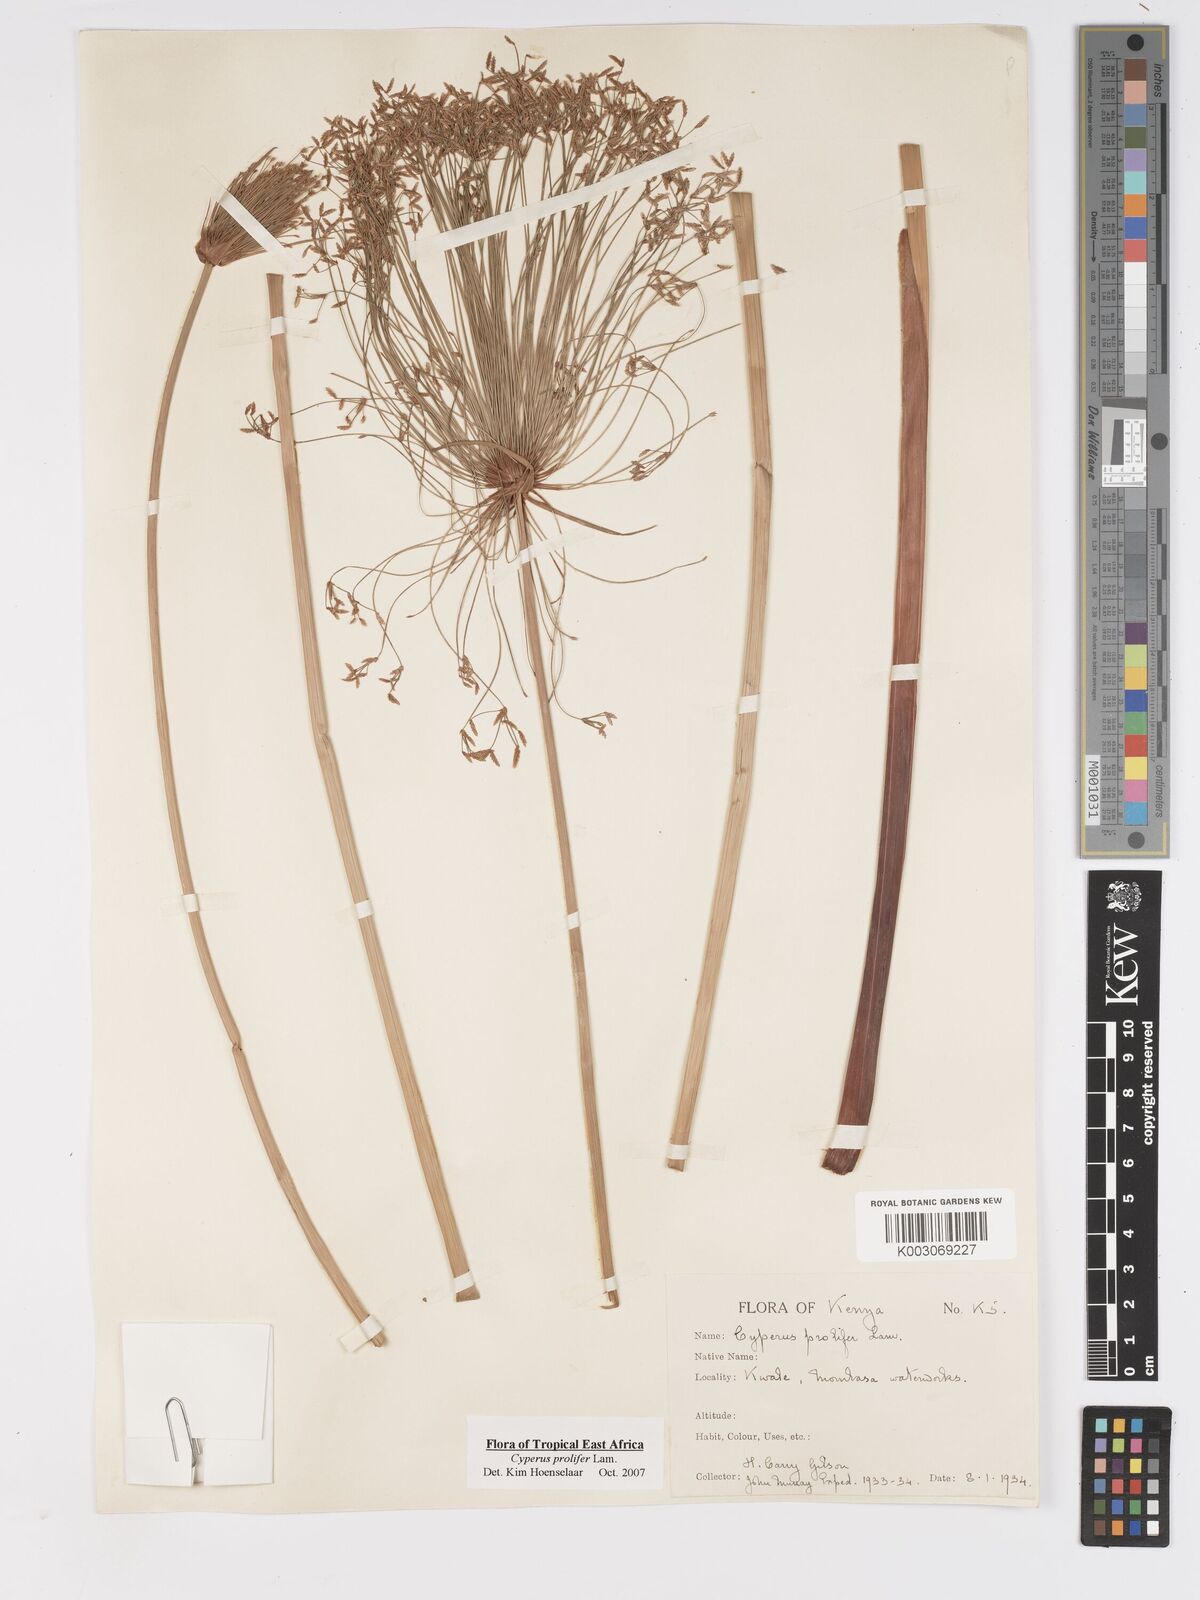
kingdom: Plantae
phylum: Tracheophyta
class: Liliopsida
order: Poales
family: Cyperaceae
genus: Cyperus
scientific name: Cyperus prolifer
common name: Miniature flatsedge
